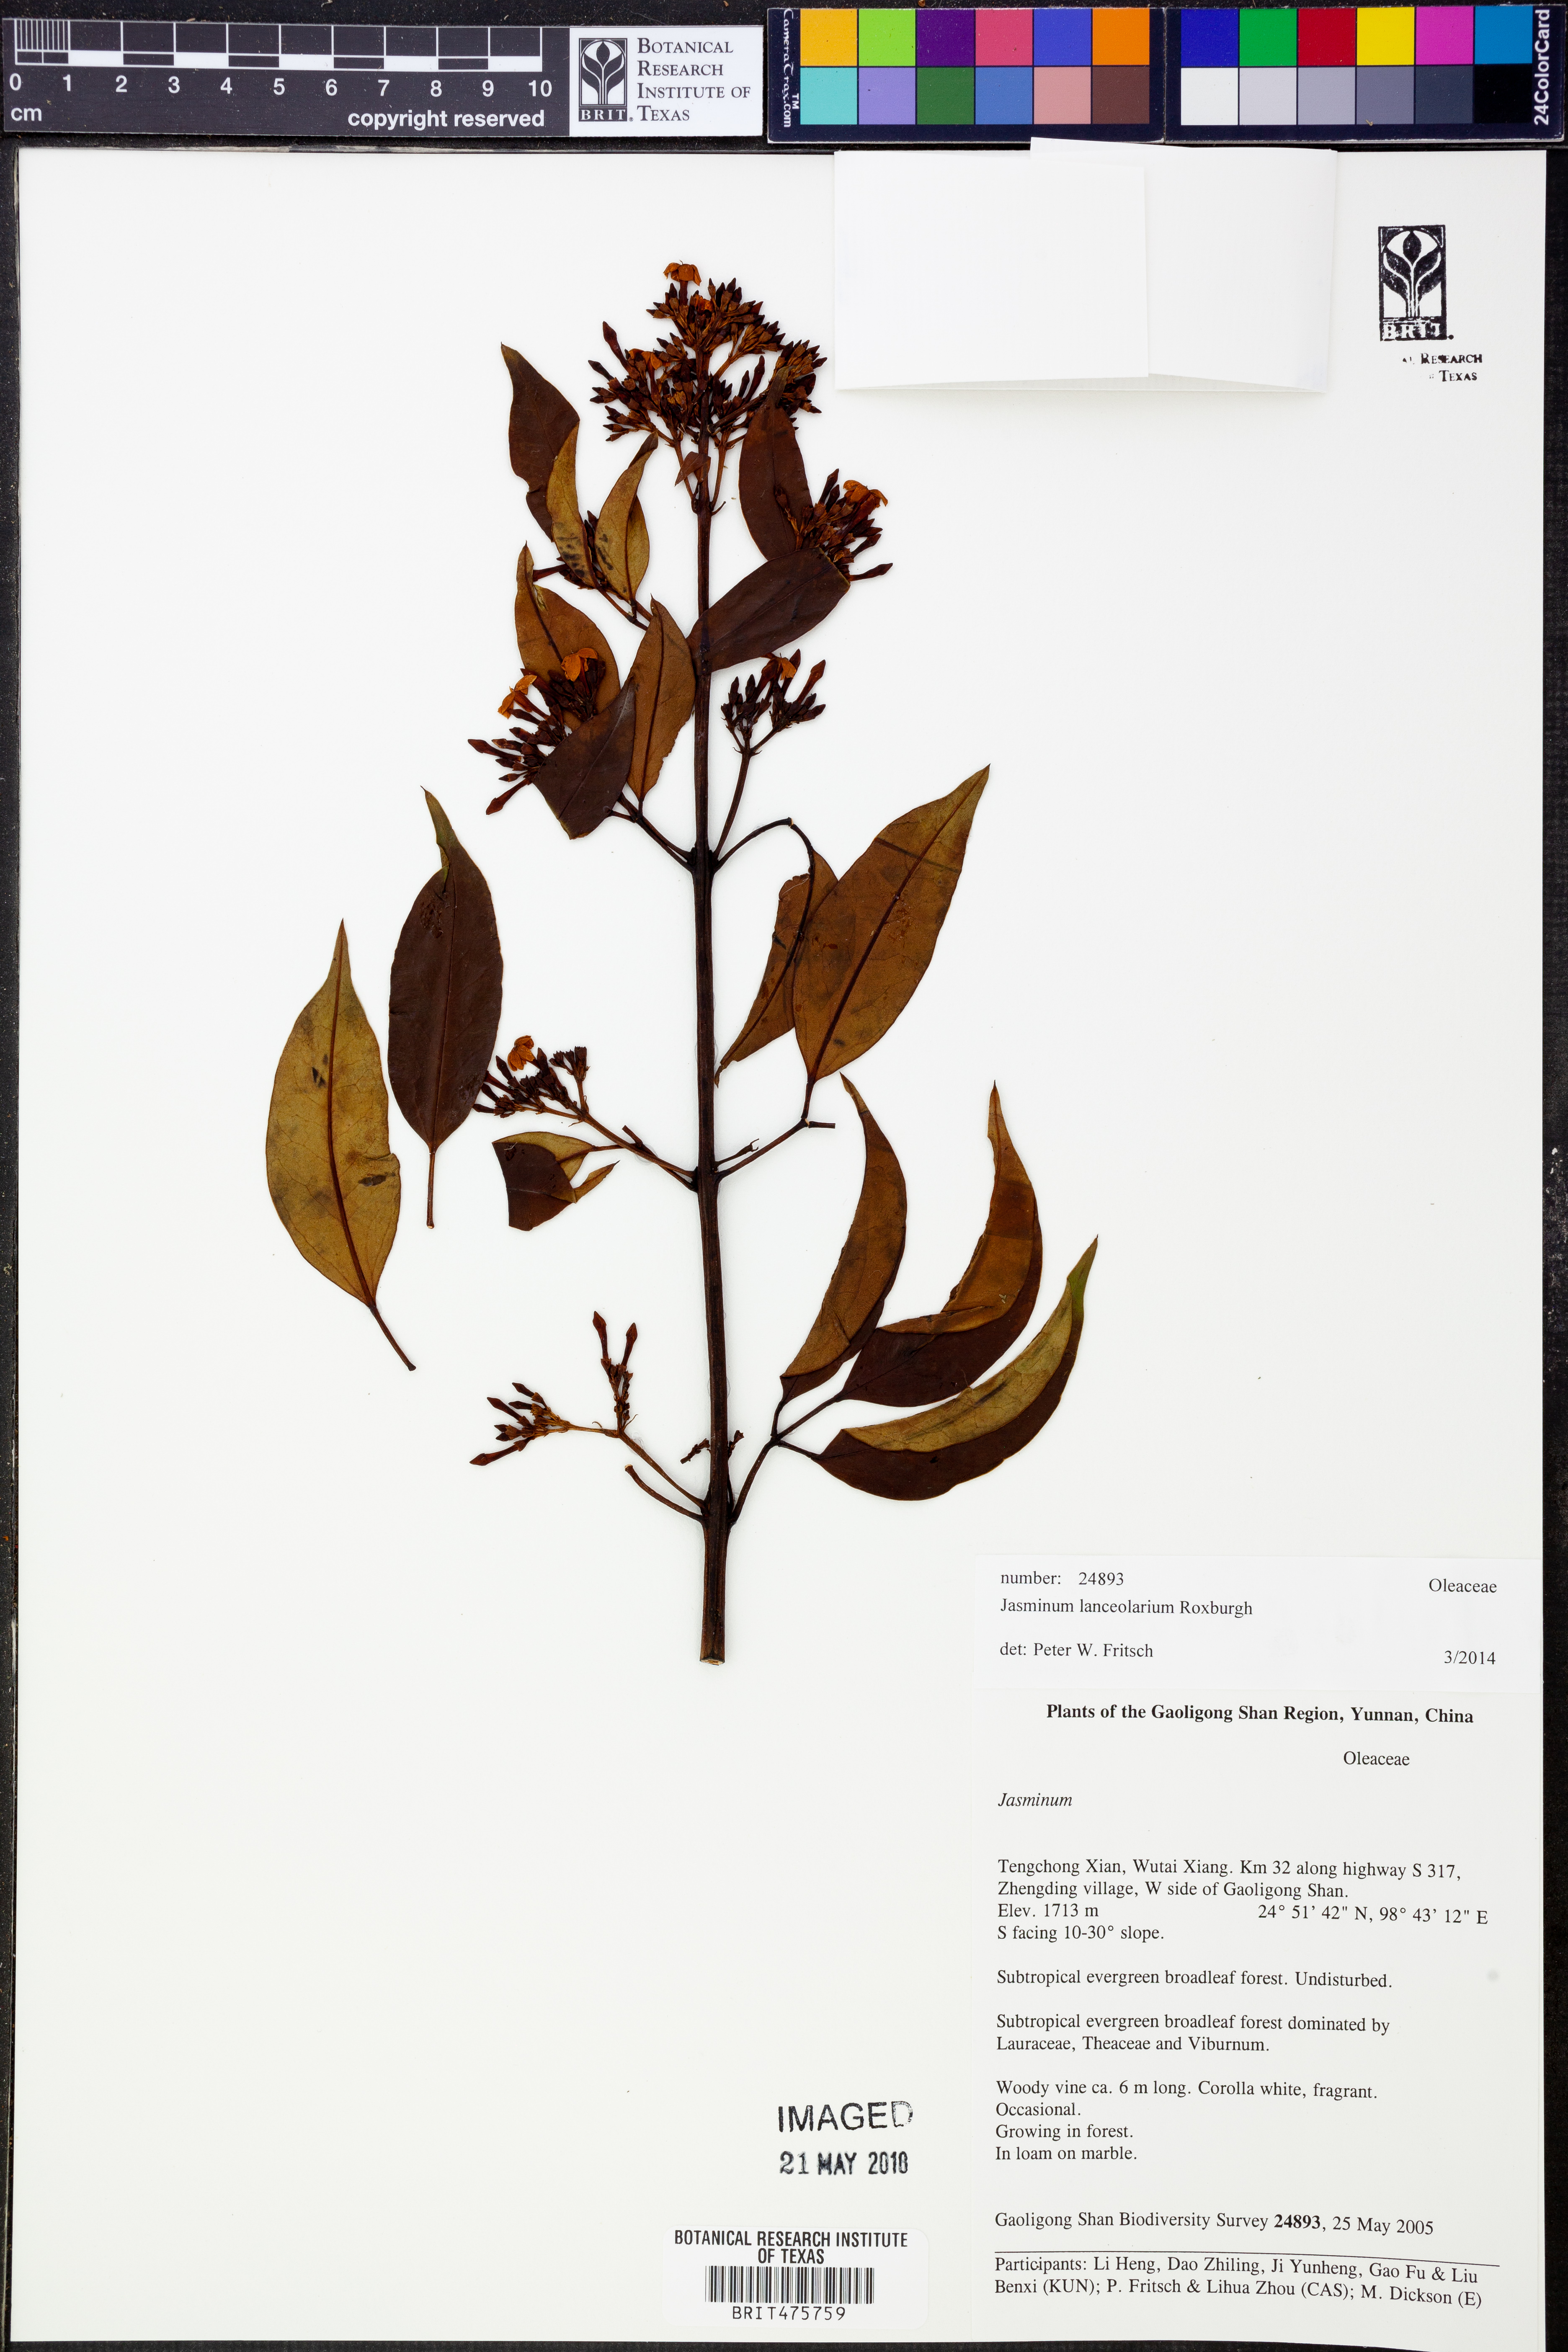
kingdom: Plantae
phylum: Tracheophyta
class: Magnoliopsida
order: Lamiales
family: Oleaceae
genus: Jasminum
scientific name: Jasminum lanceolaria
